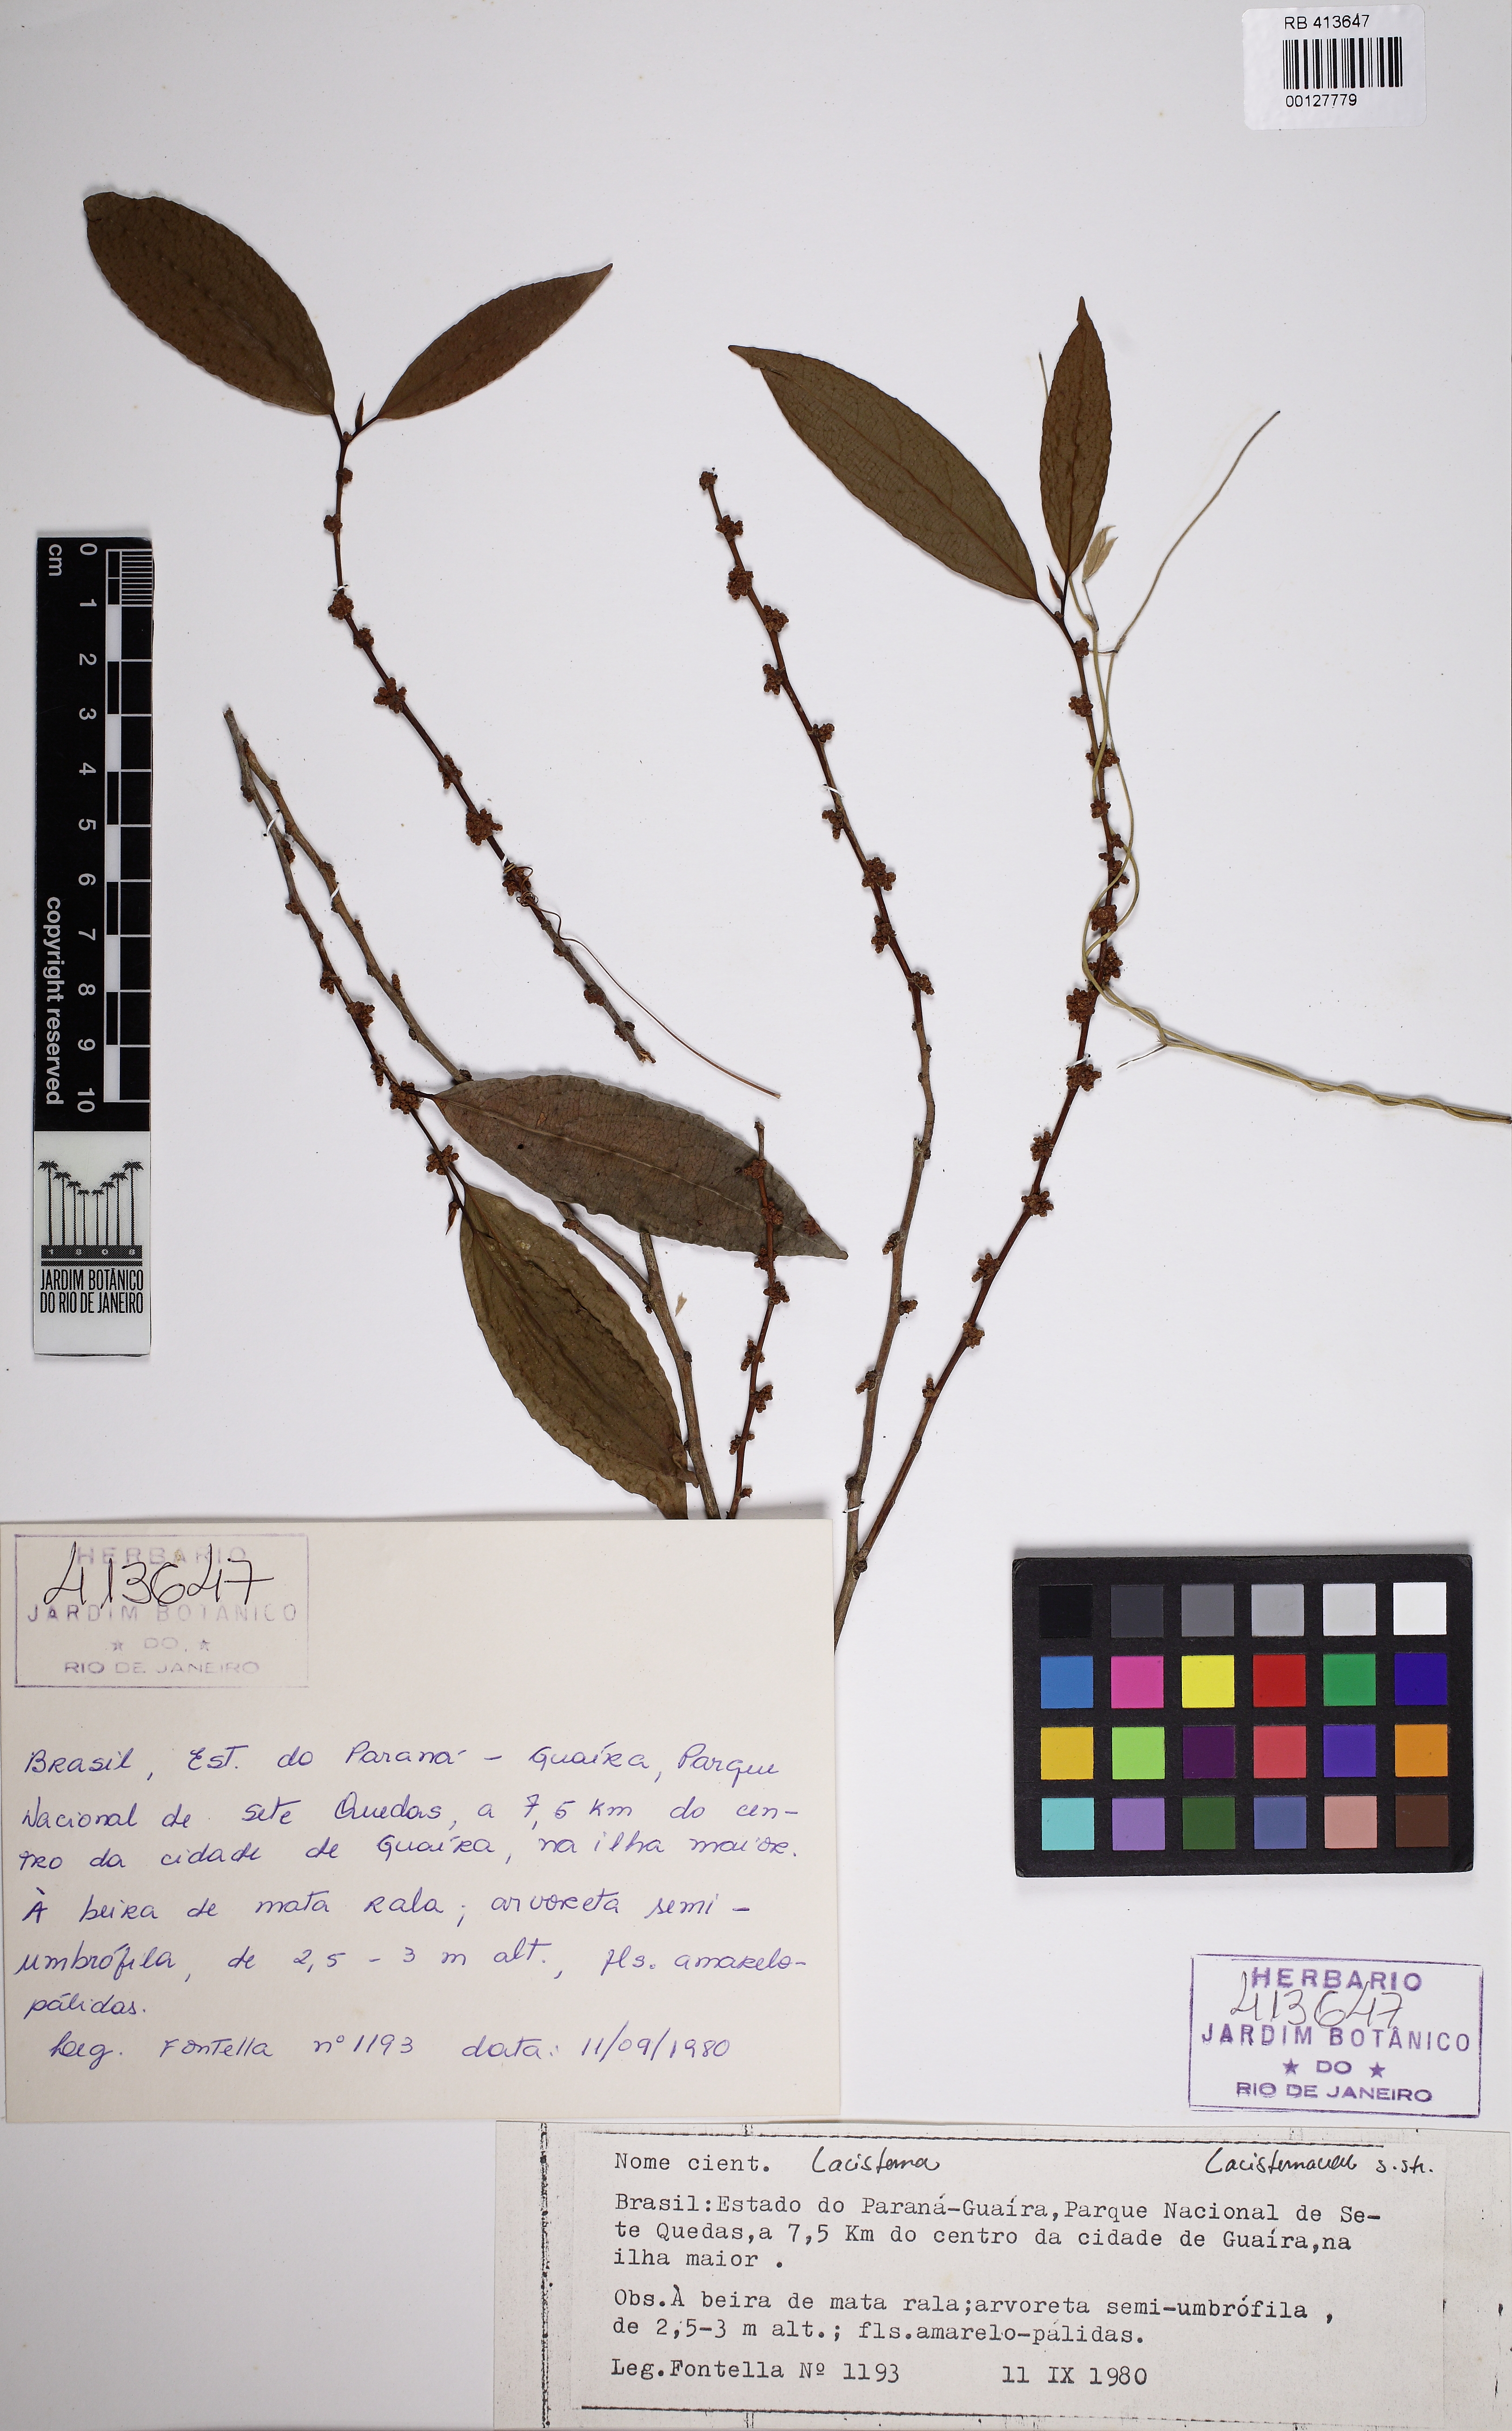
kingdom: Plantae
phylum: Tracheophyta
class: Magnoliopsida
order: Malpighiales
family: Lacistemataceae
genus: Lacistema
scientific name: Lacistema
